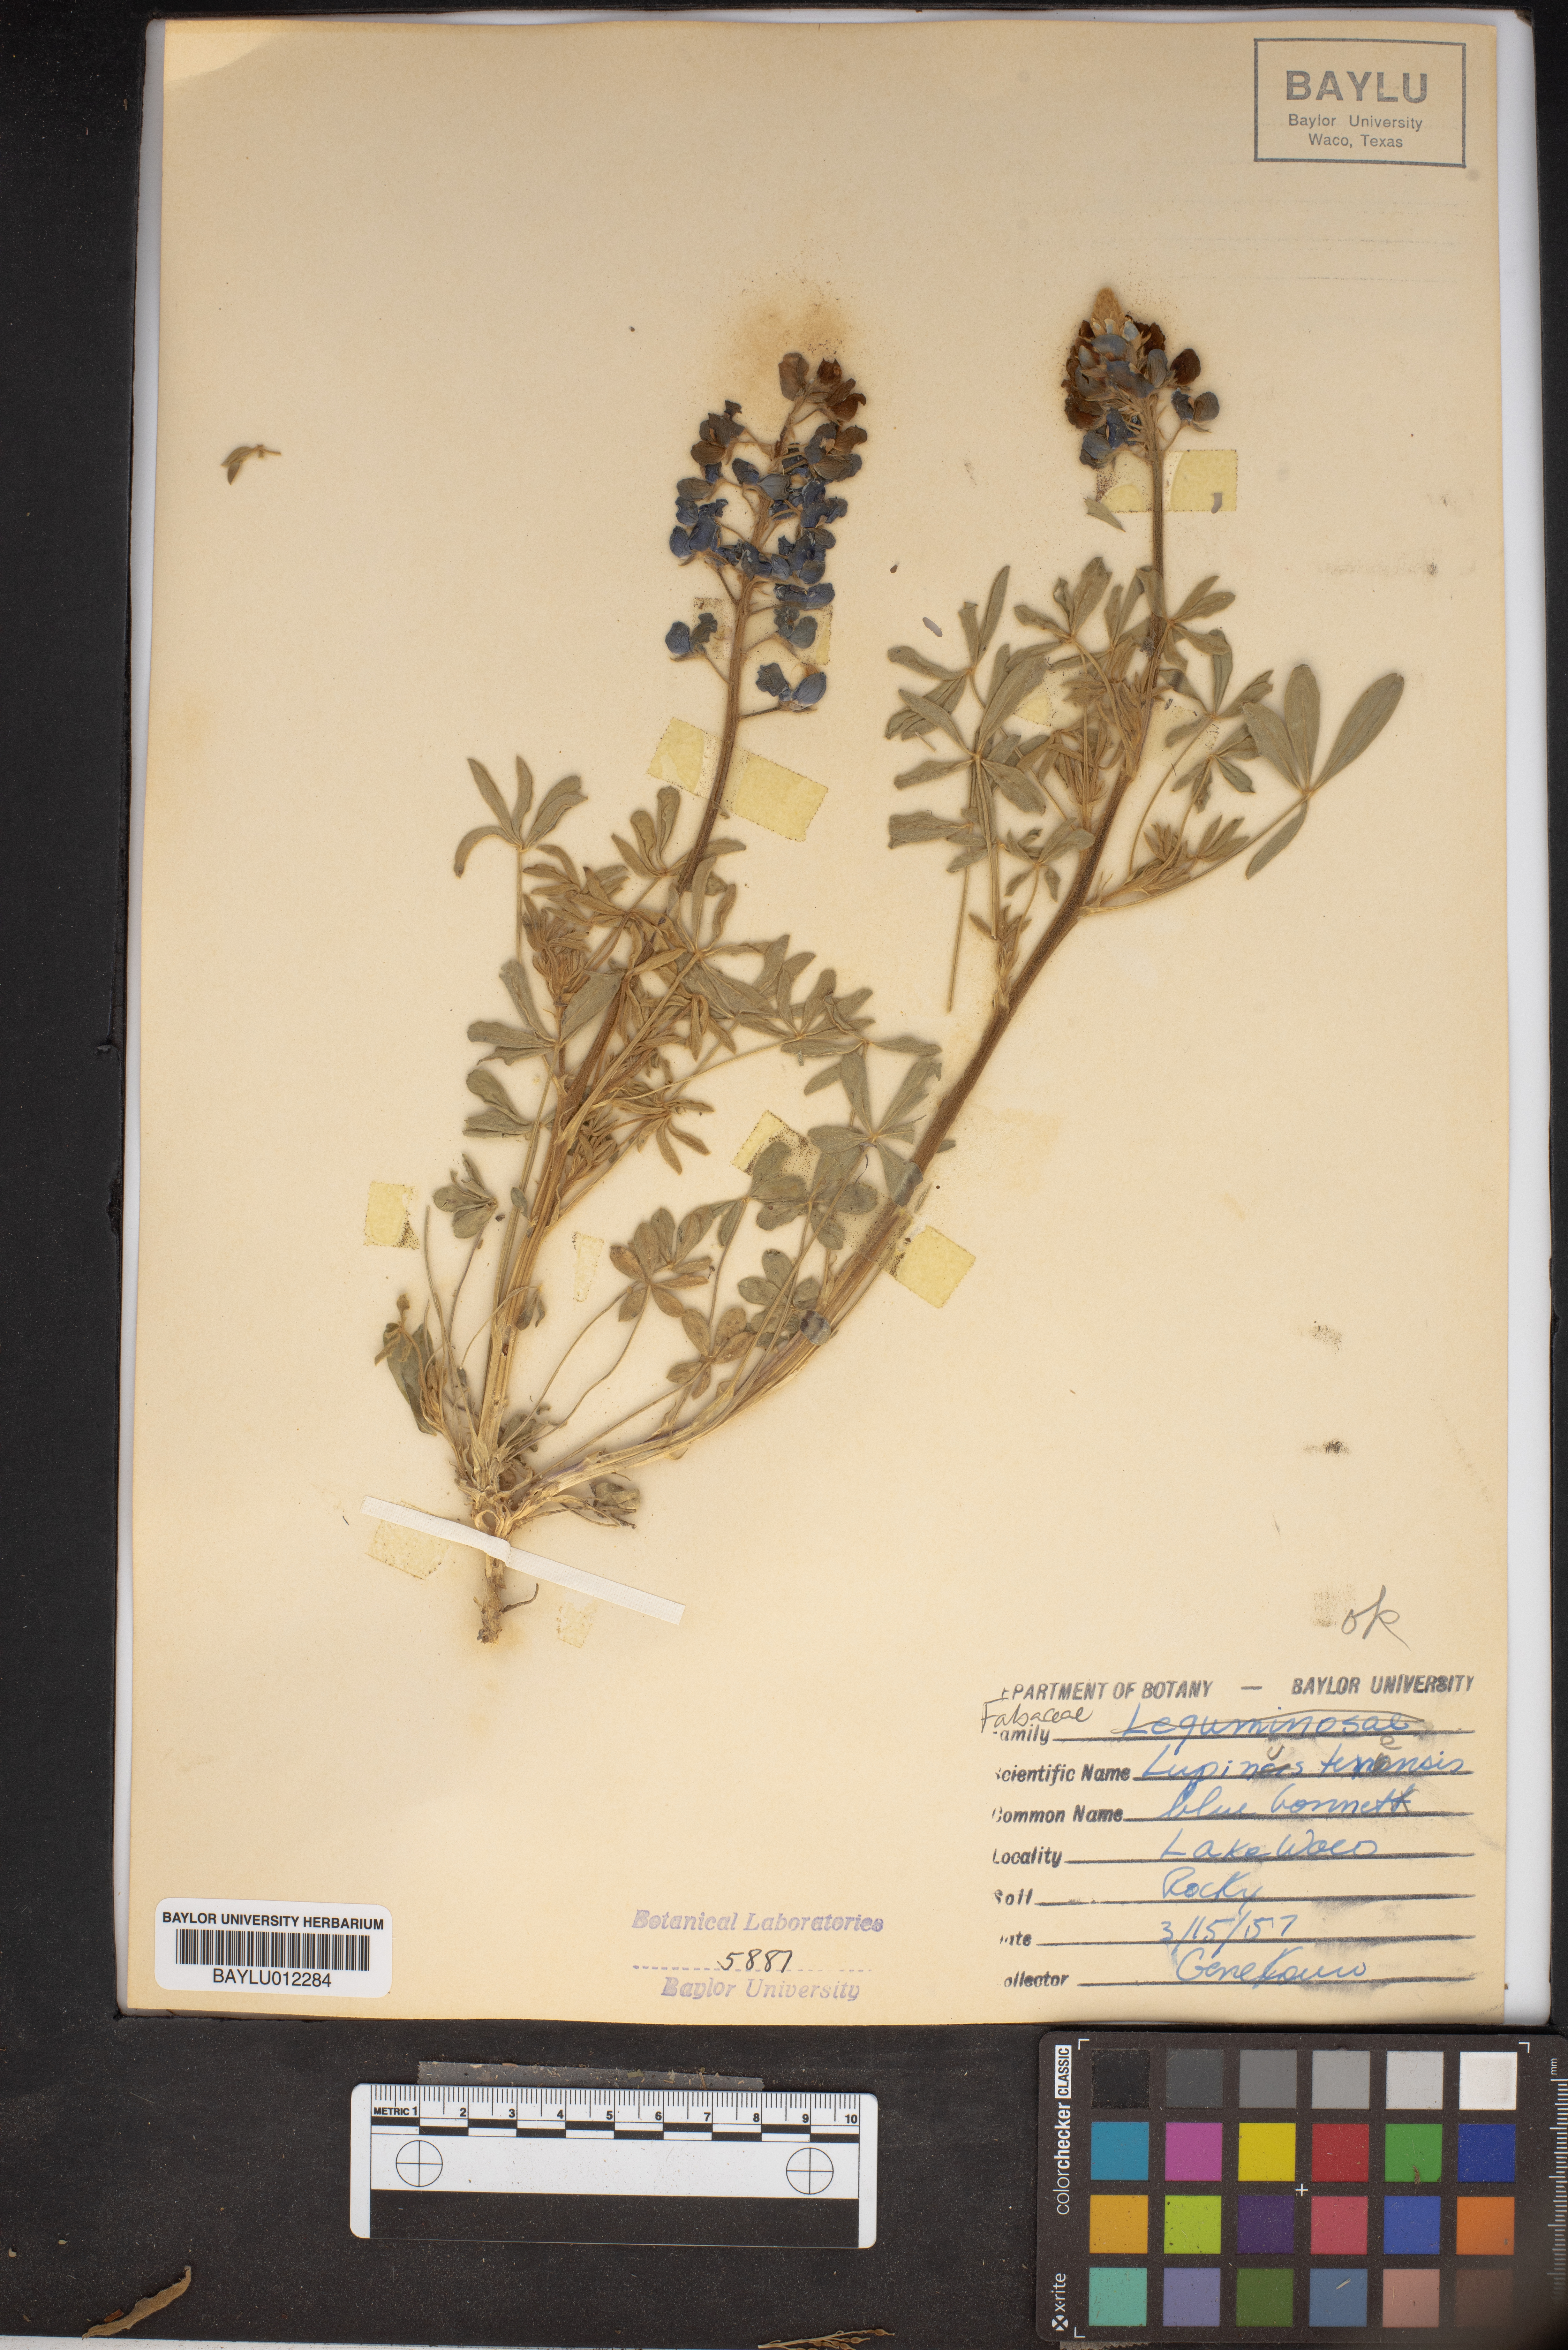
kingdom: Plantae
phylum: Tracheophyta
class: Magnoliopsida
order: Fabales
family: Fabaceae
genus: Lupinus
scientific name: Lupinus texensis
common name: Texas bluebonnet
